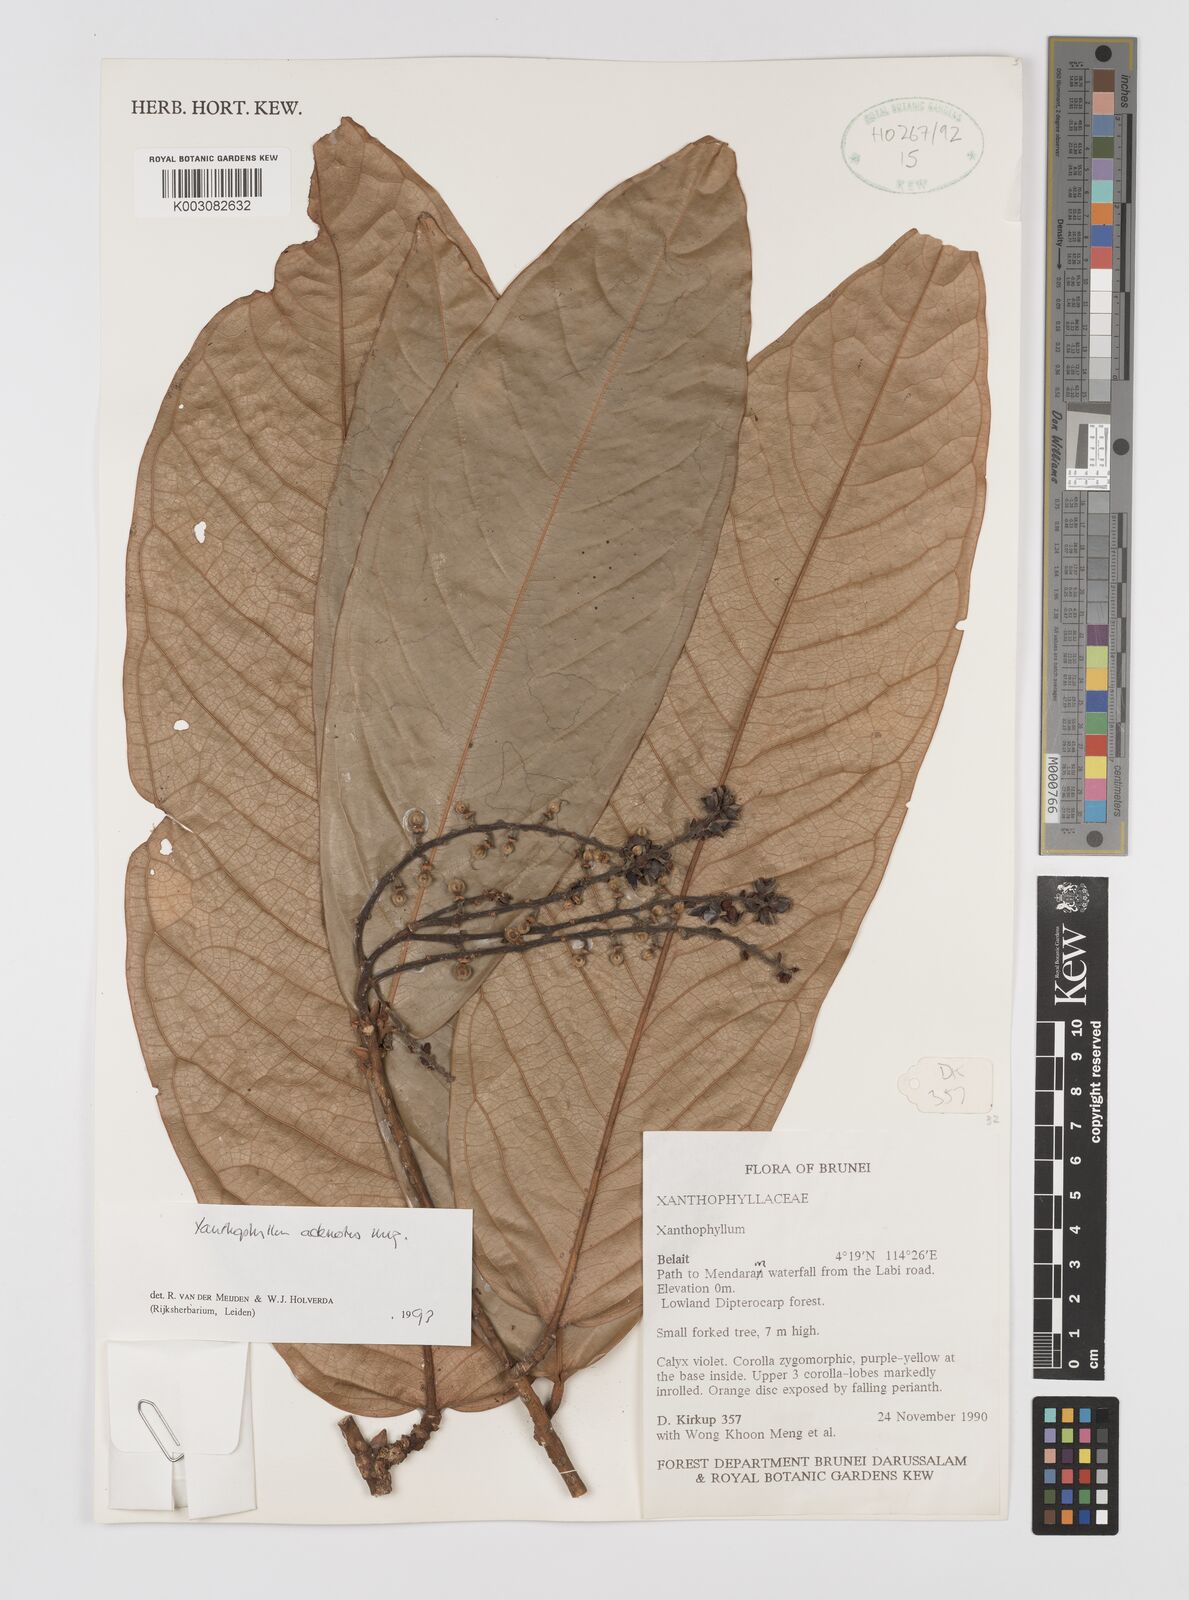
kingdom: Plantae
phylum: Tracheophyta
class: Magnoliopsida
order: Fabales
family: Polygalaceae
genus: Xanthophyllum
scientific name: Xanthophyllum adenotus
